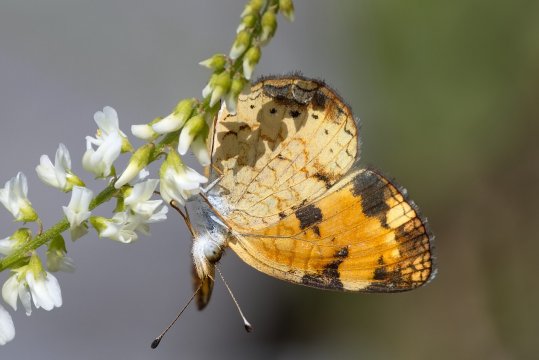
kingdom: Animalia
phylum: Arthropoda
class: Insecta
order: Lepidoptera
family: Nymphalidae
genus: Phyciodes
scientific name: Phyciodes tharos
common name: Pearl Crescent
